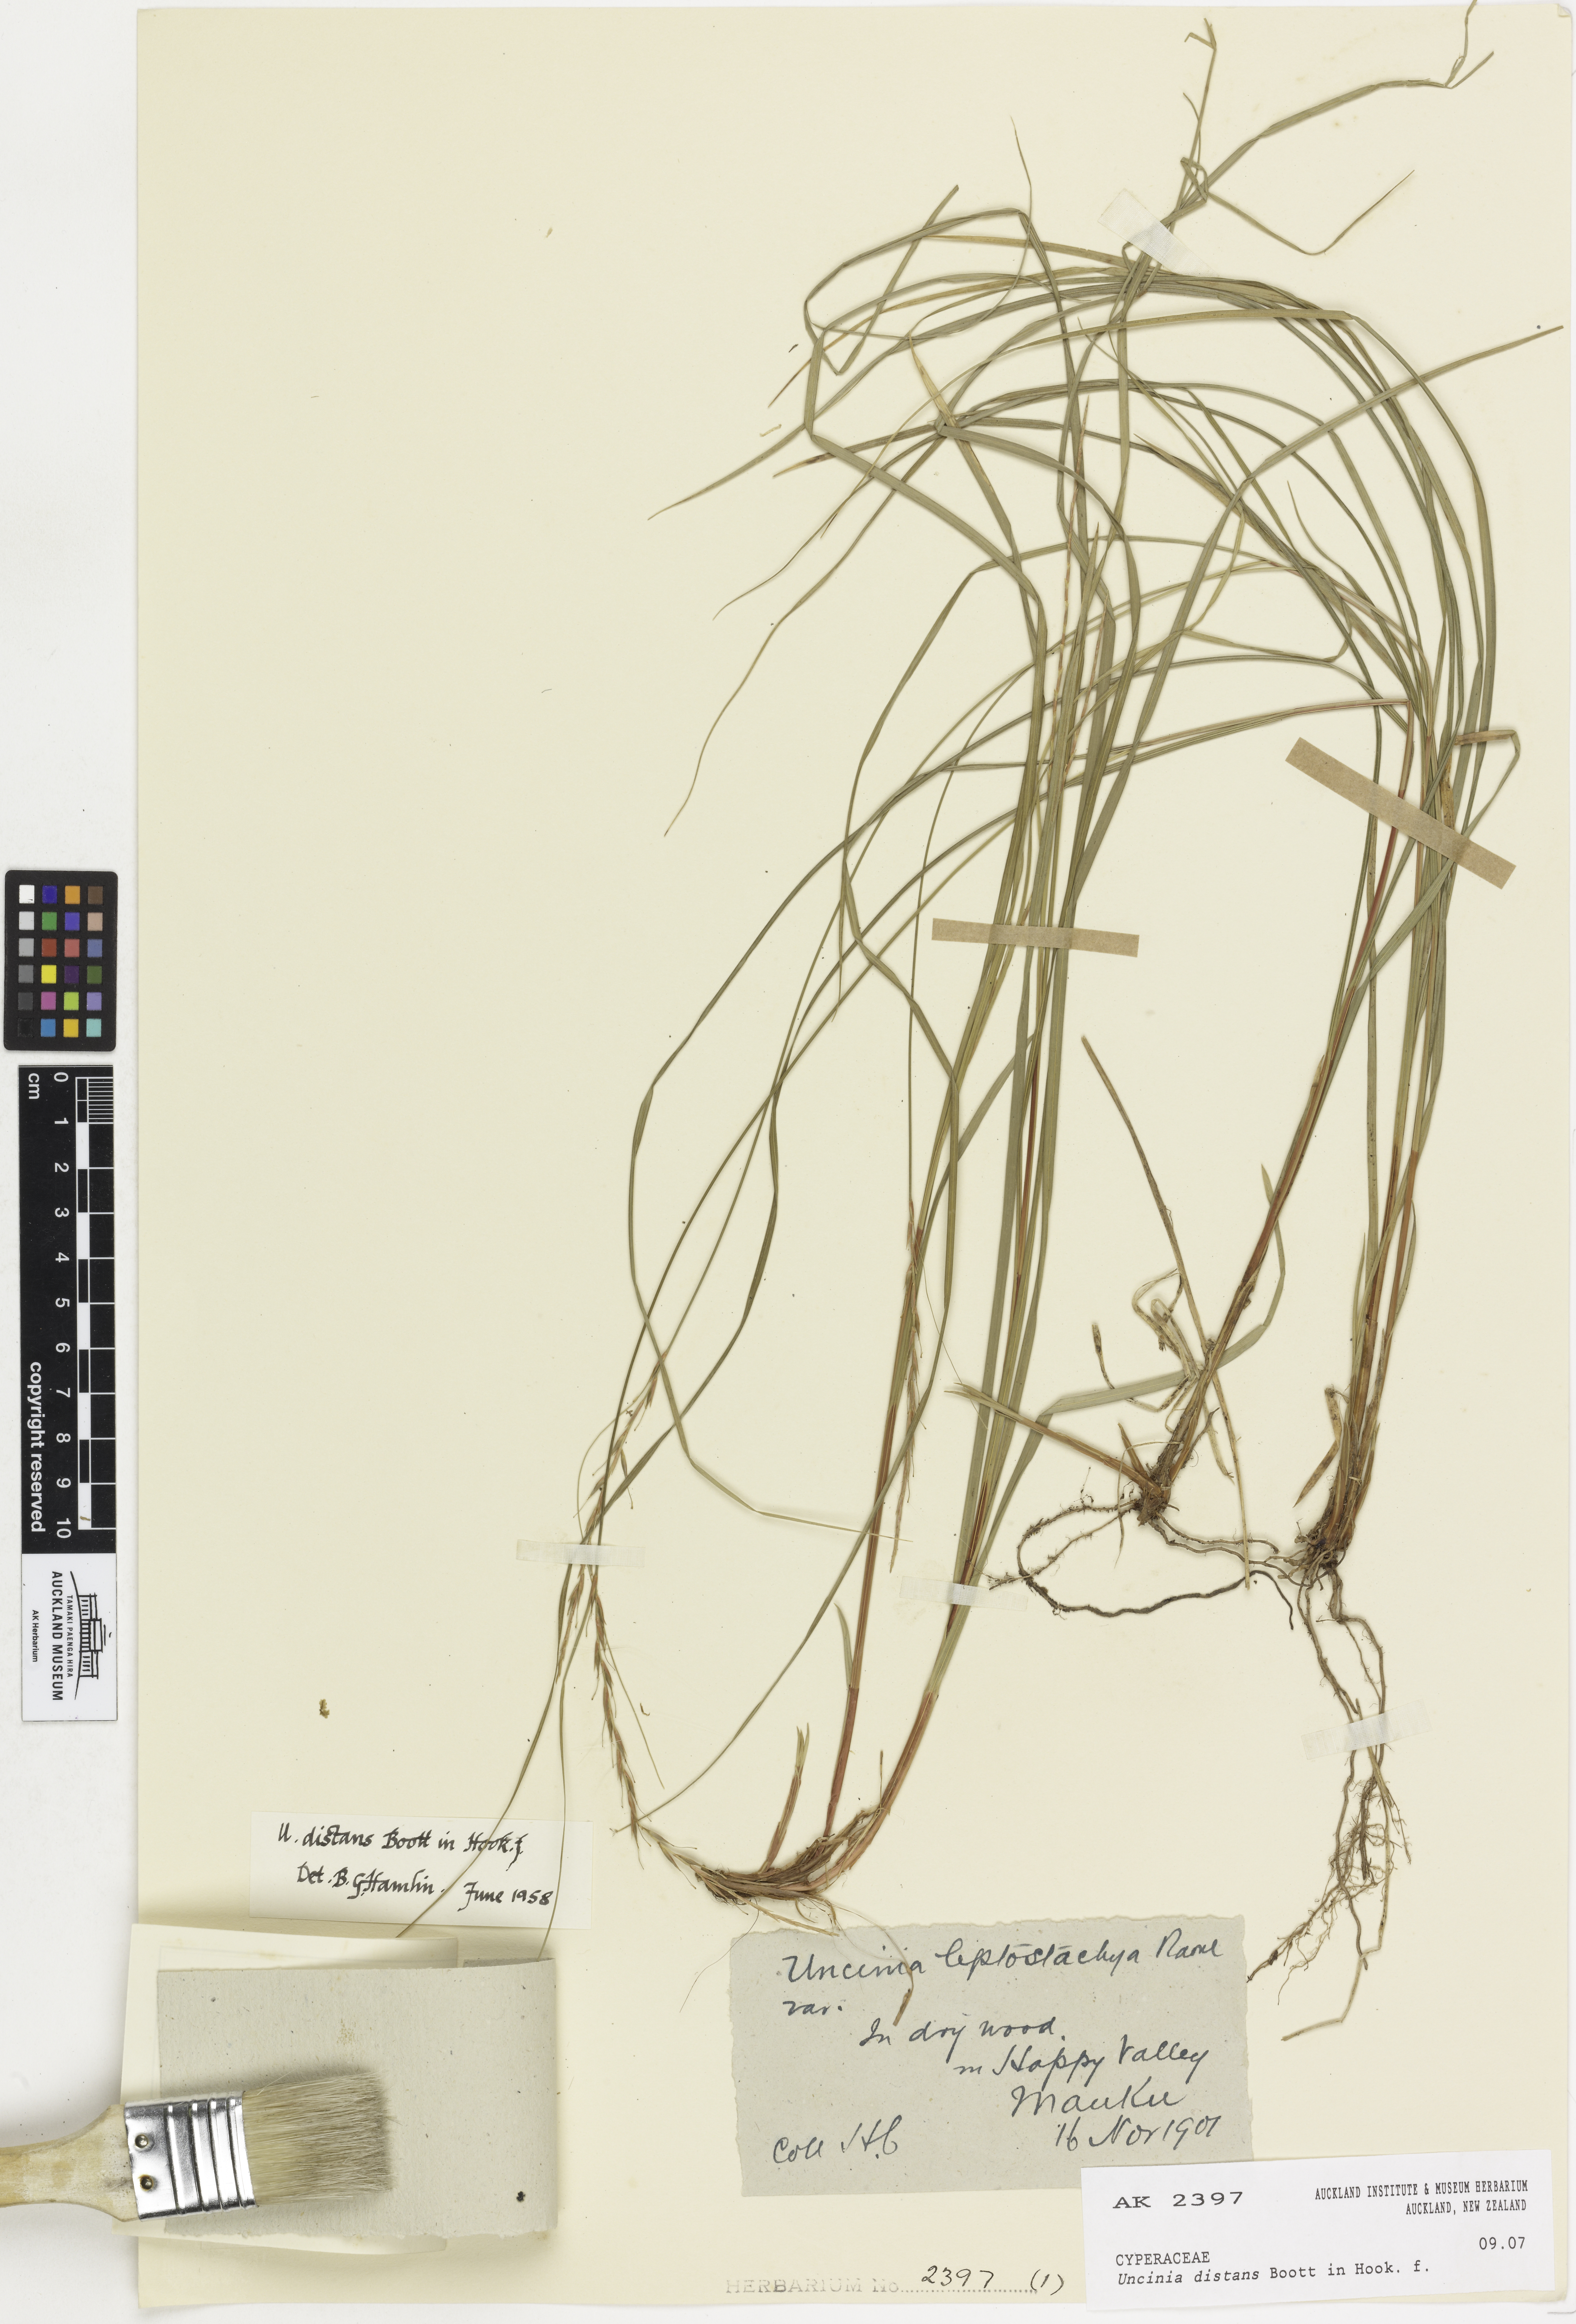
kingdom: Plantae
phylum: Tracheophyta
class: Liliopsida
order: Poales
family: Cyperaceae
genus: Carex
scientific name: Carex subviridis
